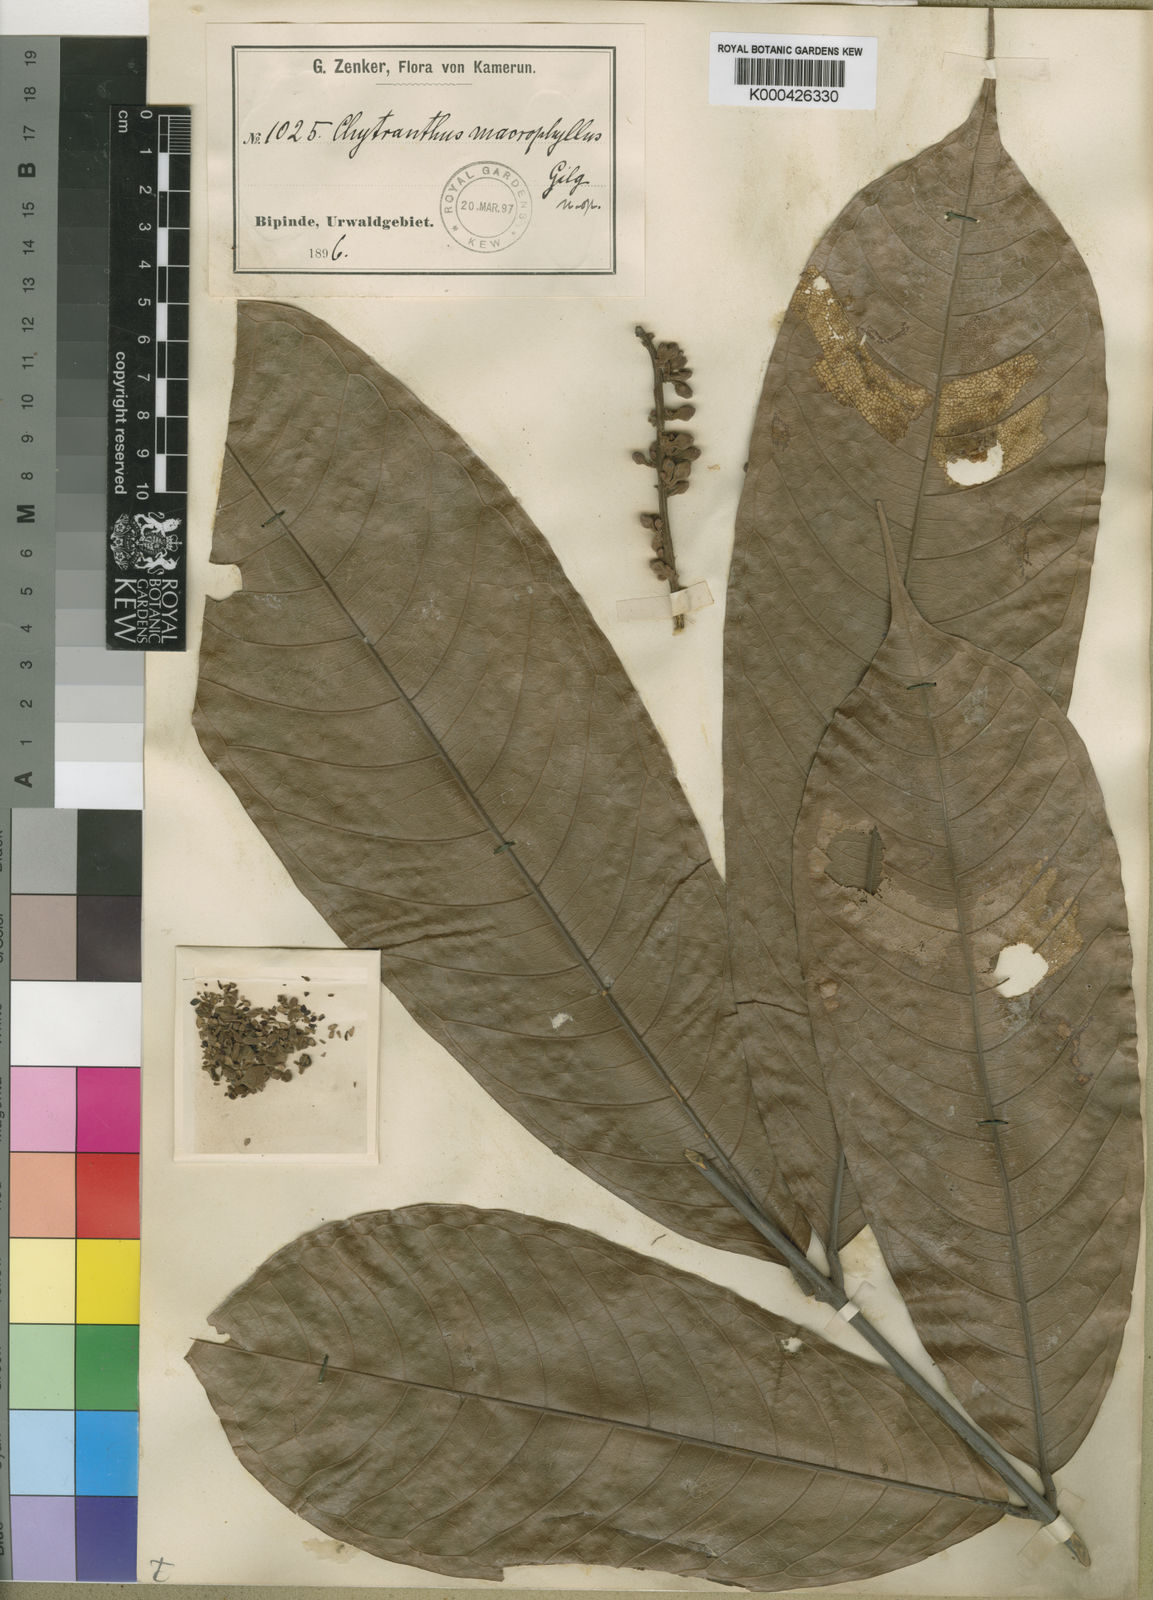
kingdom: Plantae
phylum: Tracheophyta
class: Magnoliopsida
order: Sapindales
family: Sapindaceae
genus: Chytranthus
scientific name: Chytranthus macrophyllus
